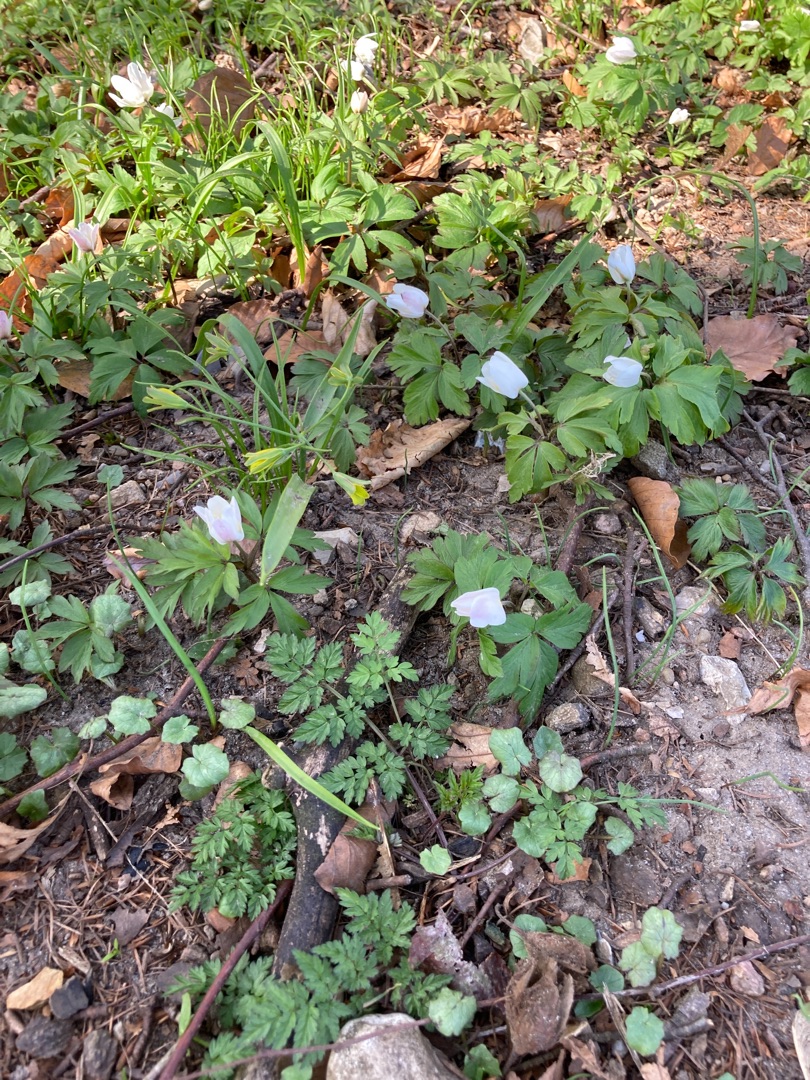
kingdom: Plantae
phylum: Tracheophyta
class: Magnoliopsida
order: Ranunculales
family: Ranunculaceae
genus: Anemone
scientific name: Anemone nemorosa
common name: Hvid anemone
